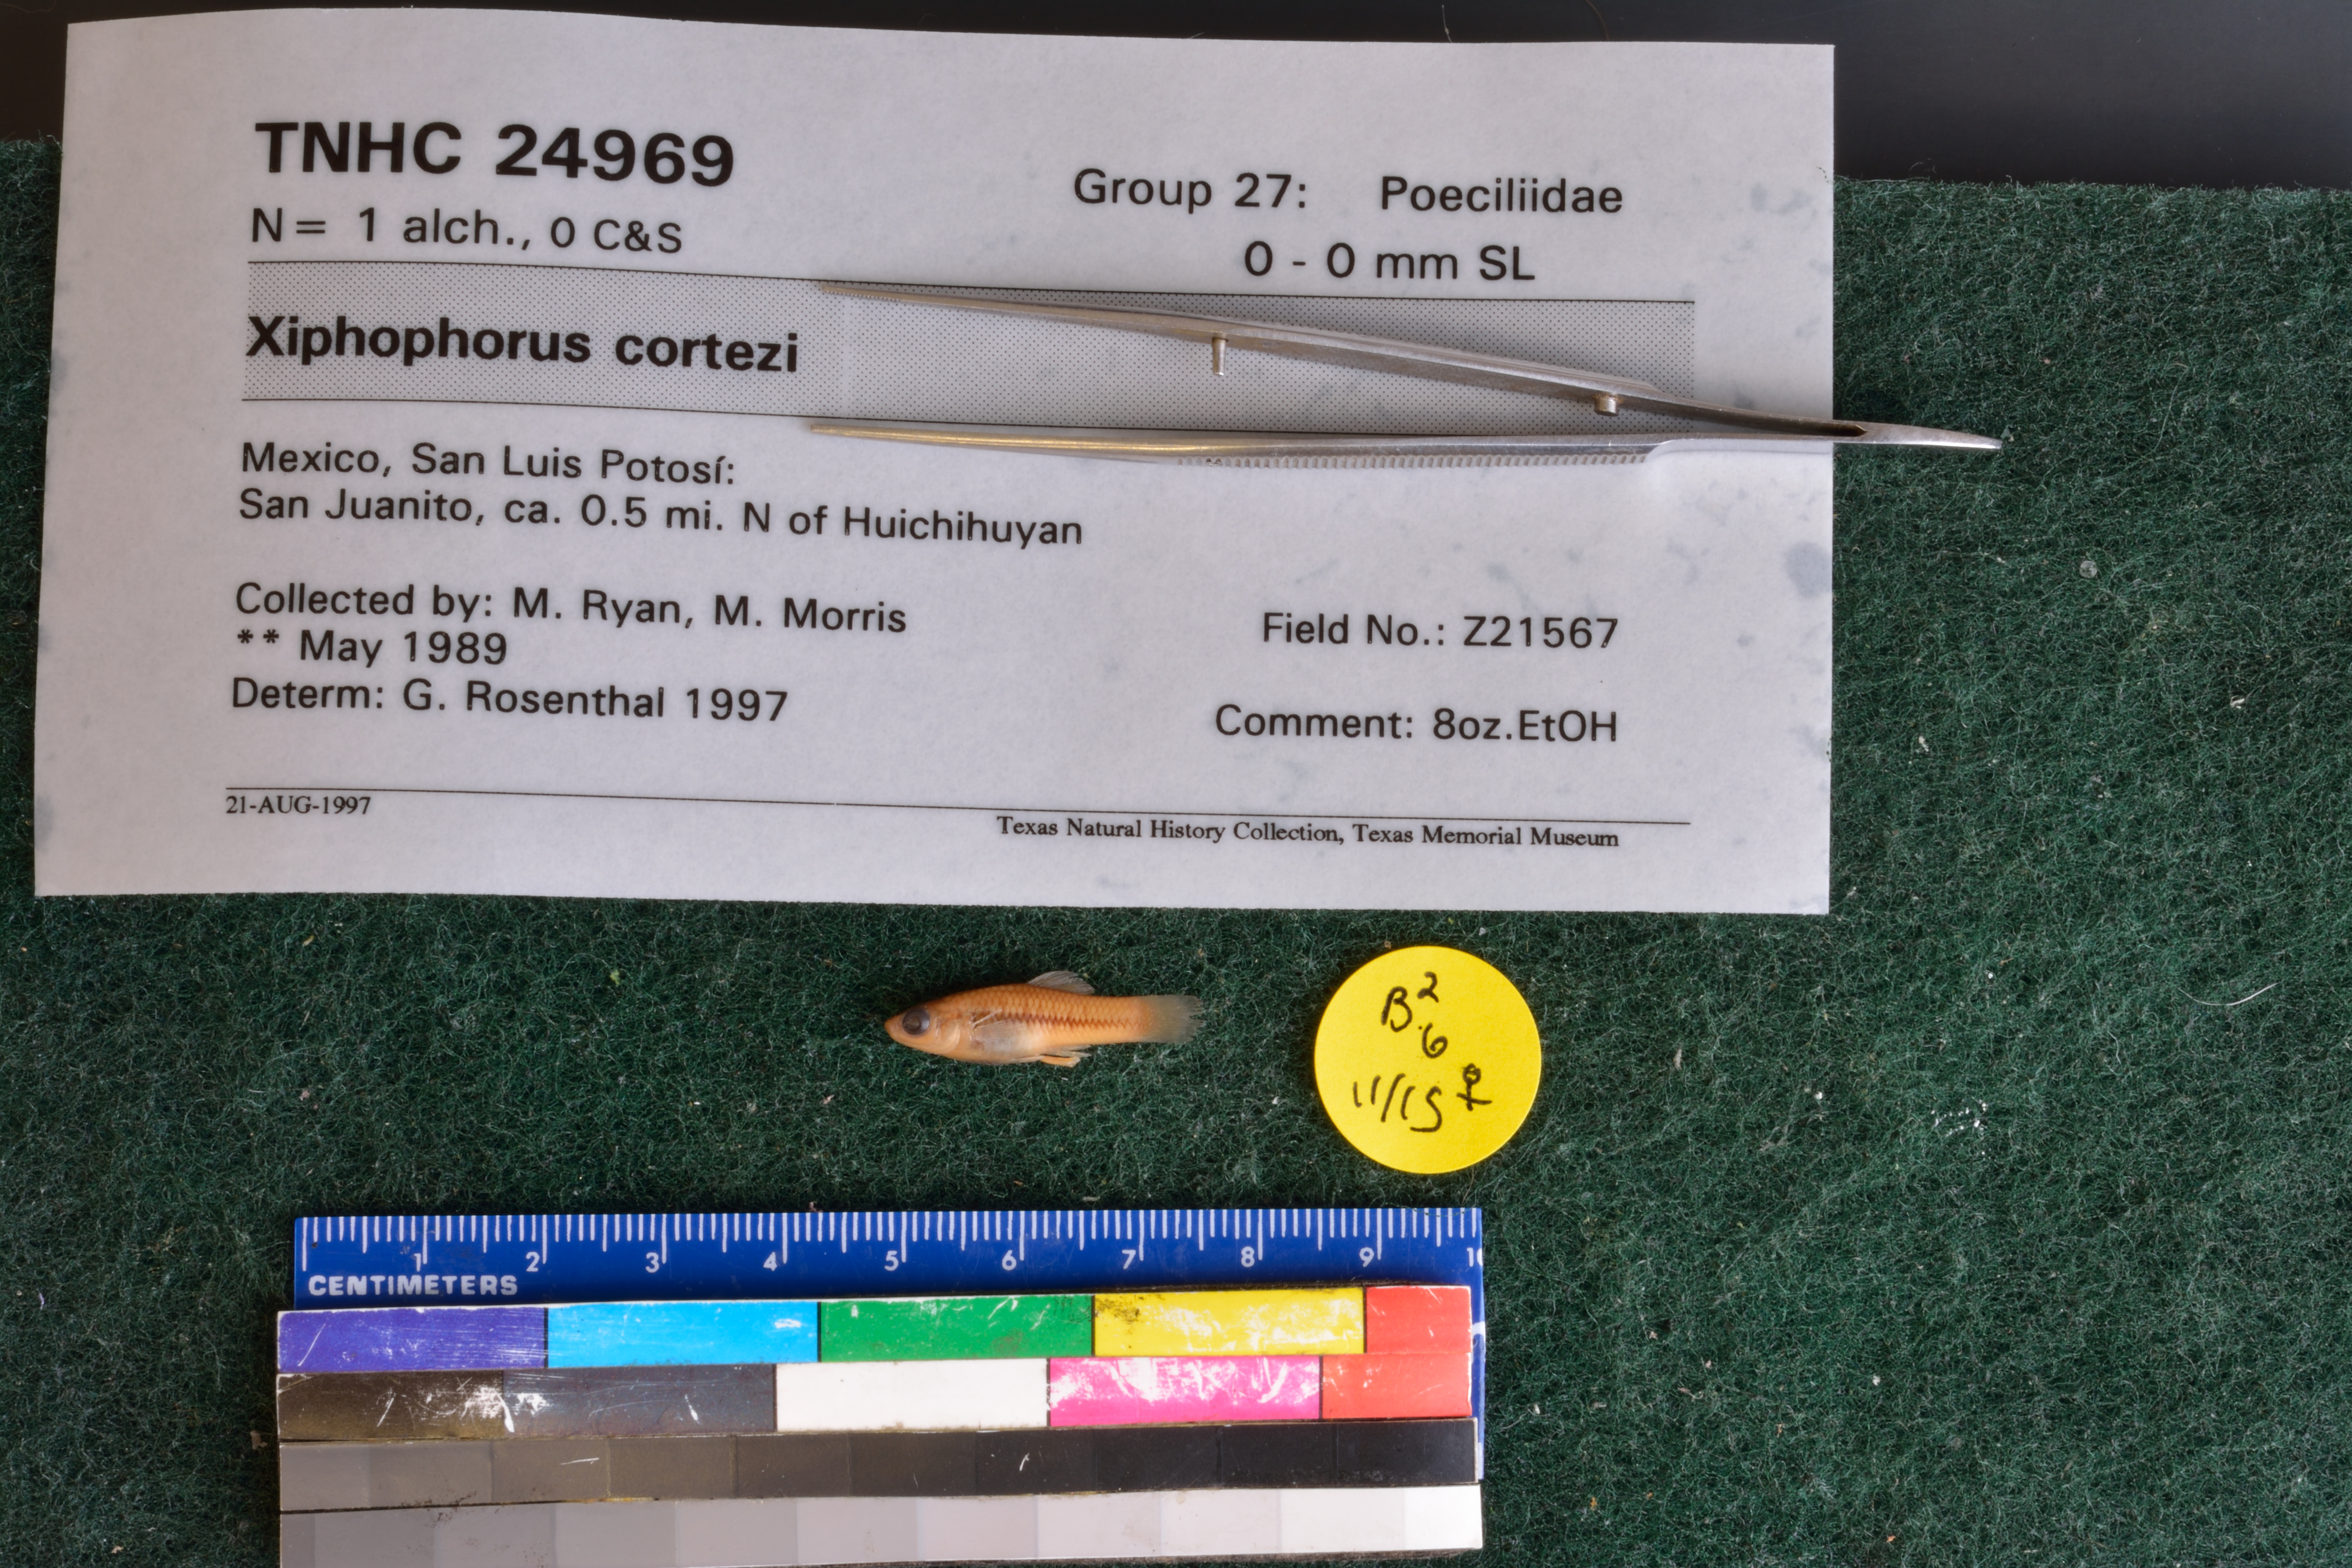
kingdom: Animalia
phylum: Chordata
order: Cyprinodontiformes
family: Poeciliidae
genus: Xiphophorus
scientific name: Xiphophorus cortezi
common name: Delicate swordtail
